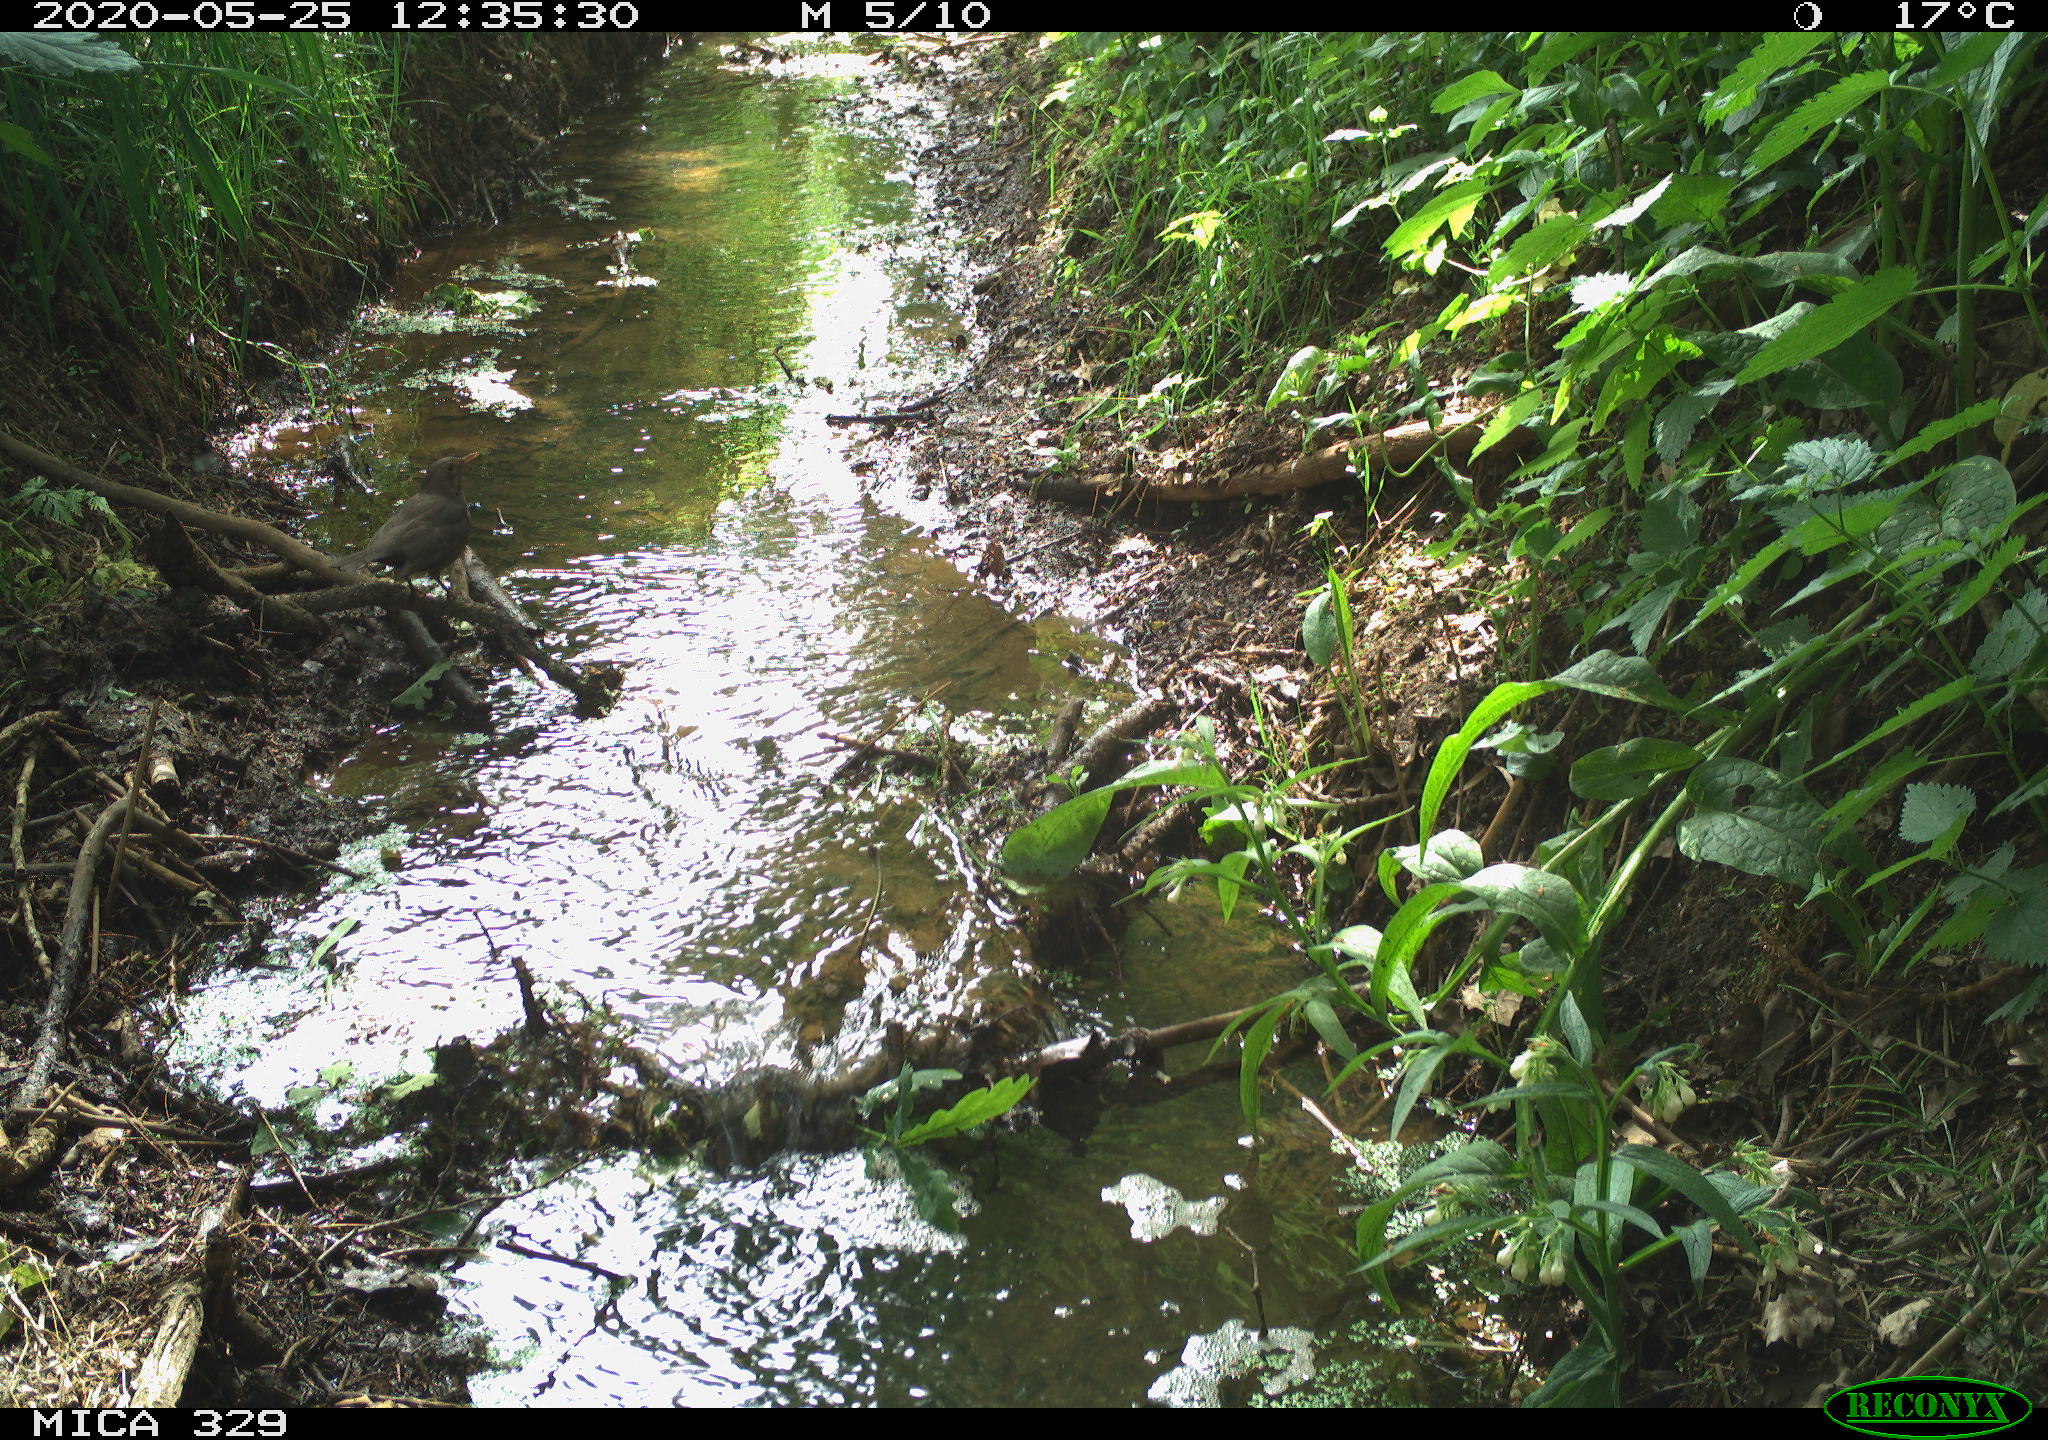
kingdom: Animalia
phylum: Chordata
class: Aves
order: Passeriformes
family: Turdidae
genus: Turdus
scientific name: Turdus merula
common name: Common blackbird
